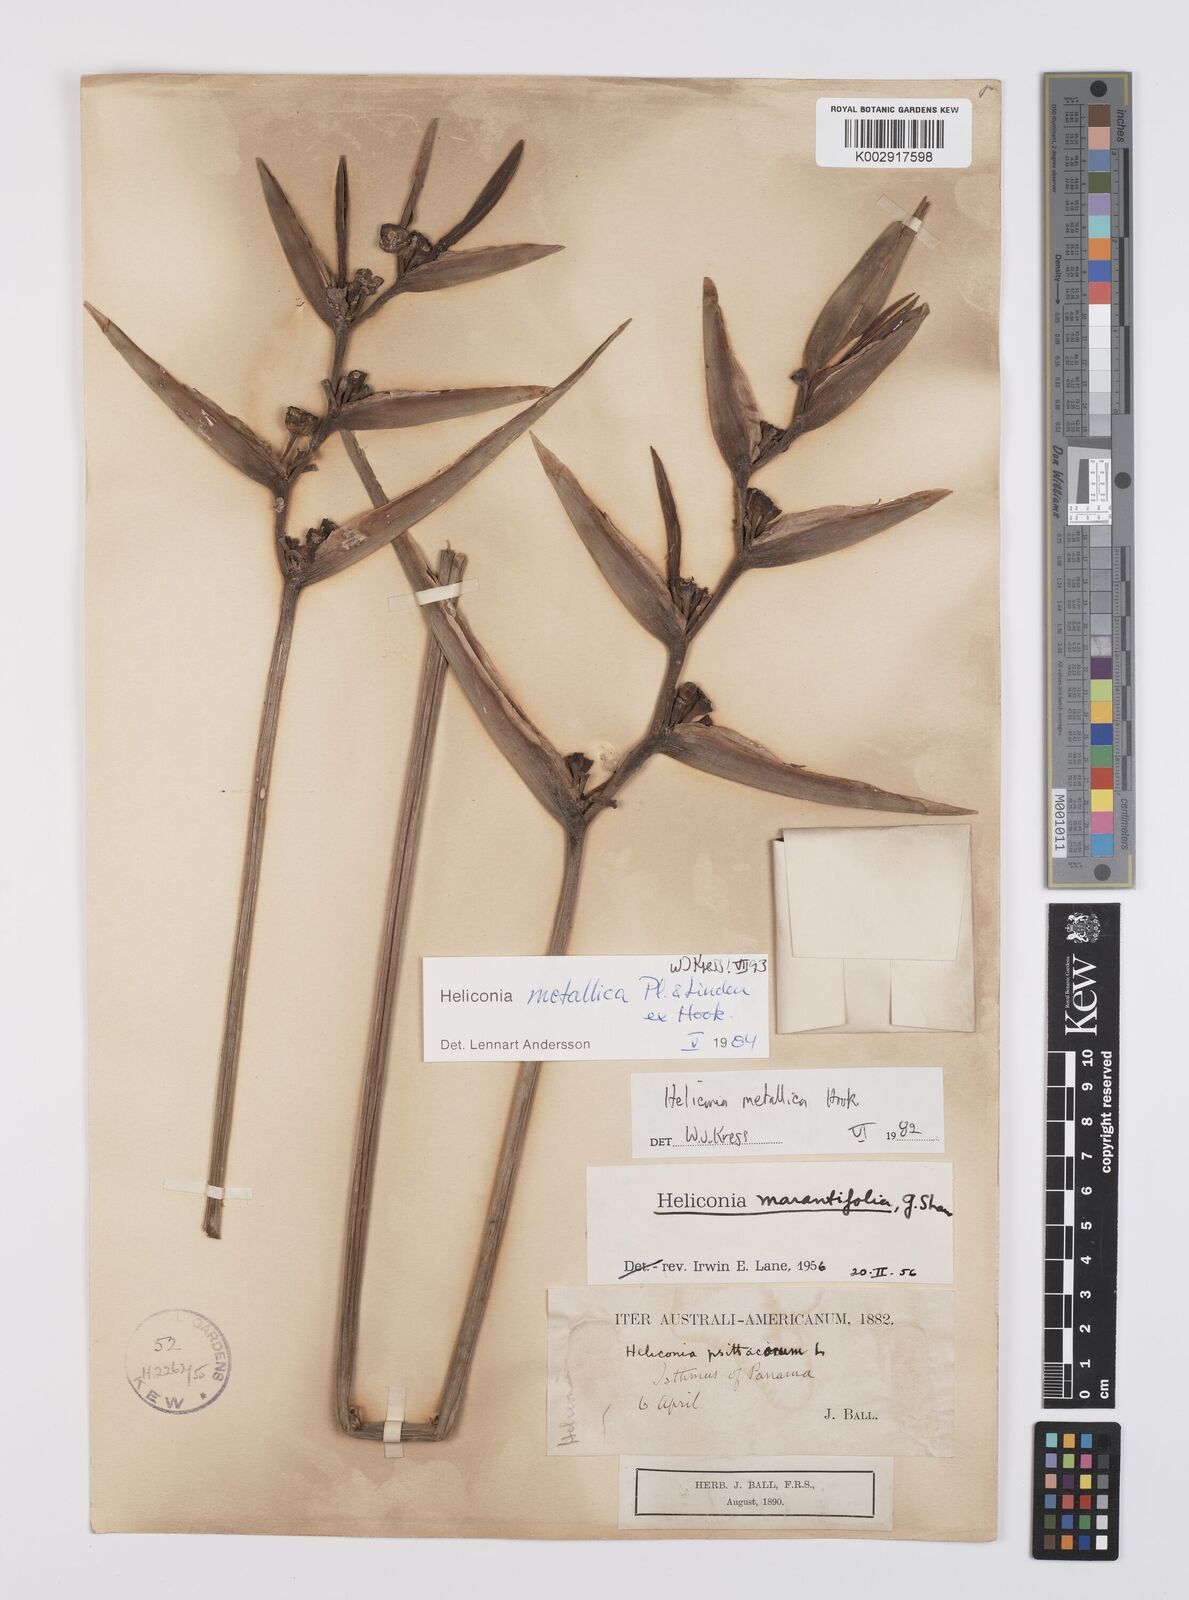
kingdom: Plantae
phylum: Tracheophyta
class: Liliopsida
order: Zingiberales
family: Heliconiaceae
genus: Heliconia
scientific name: Heliconia metallica
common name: Shining bird of paradise
